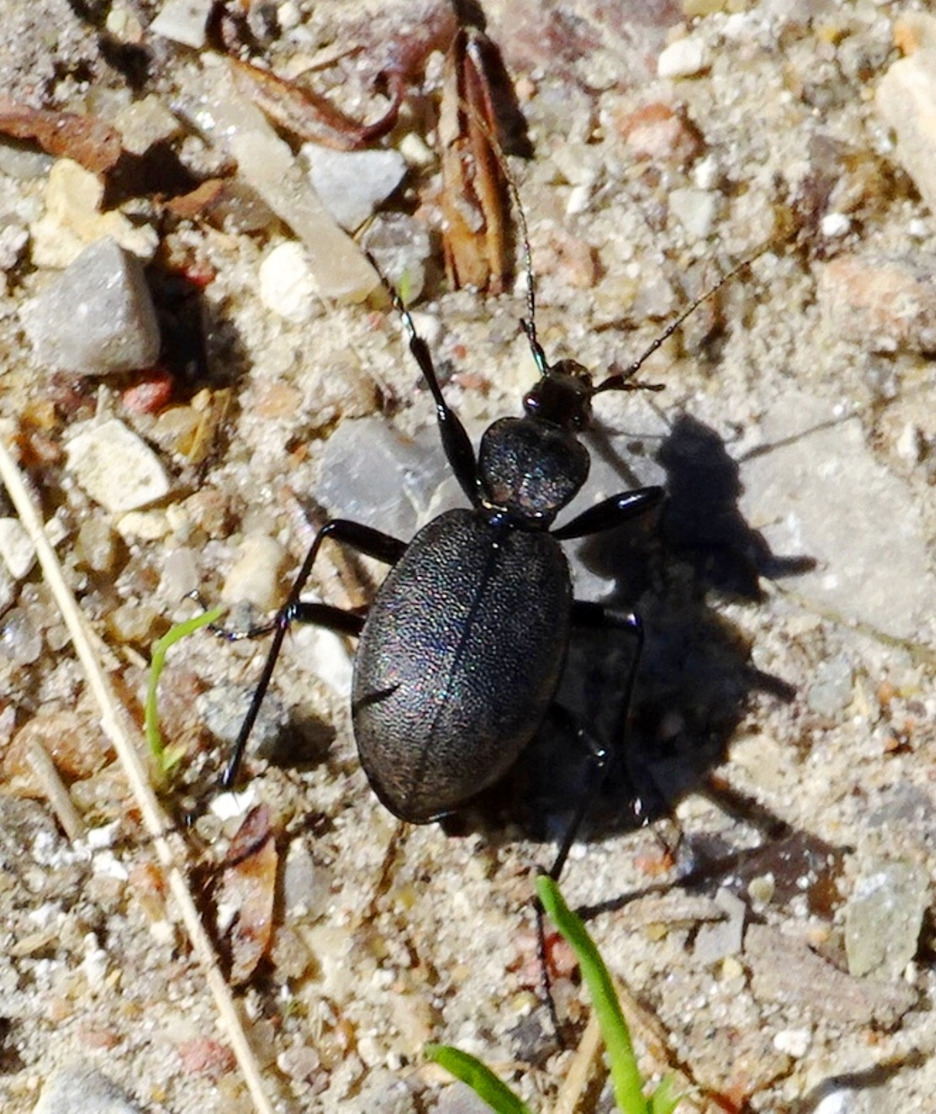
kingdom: Animalia
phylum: Arthropoda
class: Insecta
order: Coleoptera
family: Carabidae
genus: Cychrus
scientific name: Cychrus caraboides
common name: Sneglerøver
